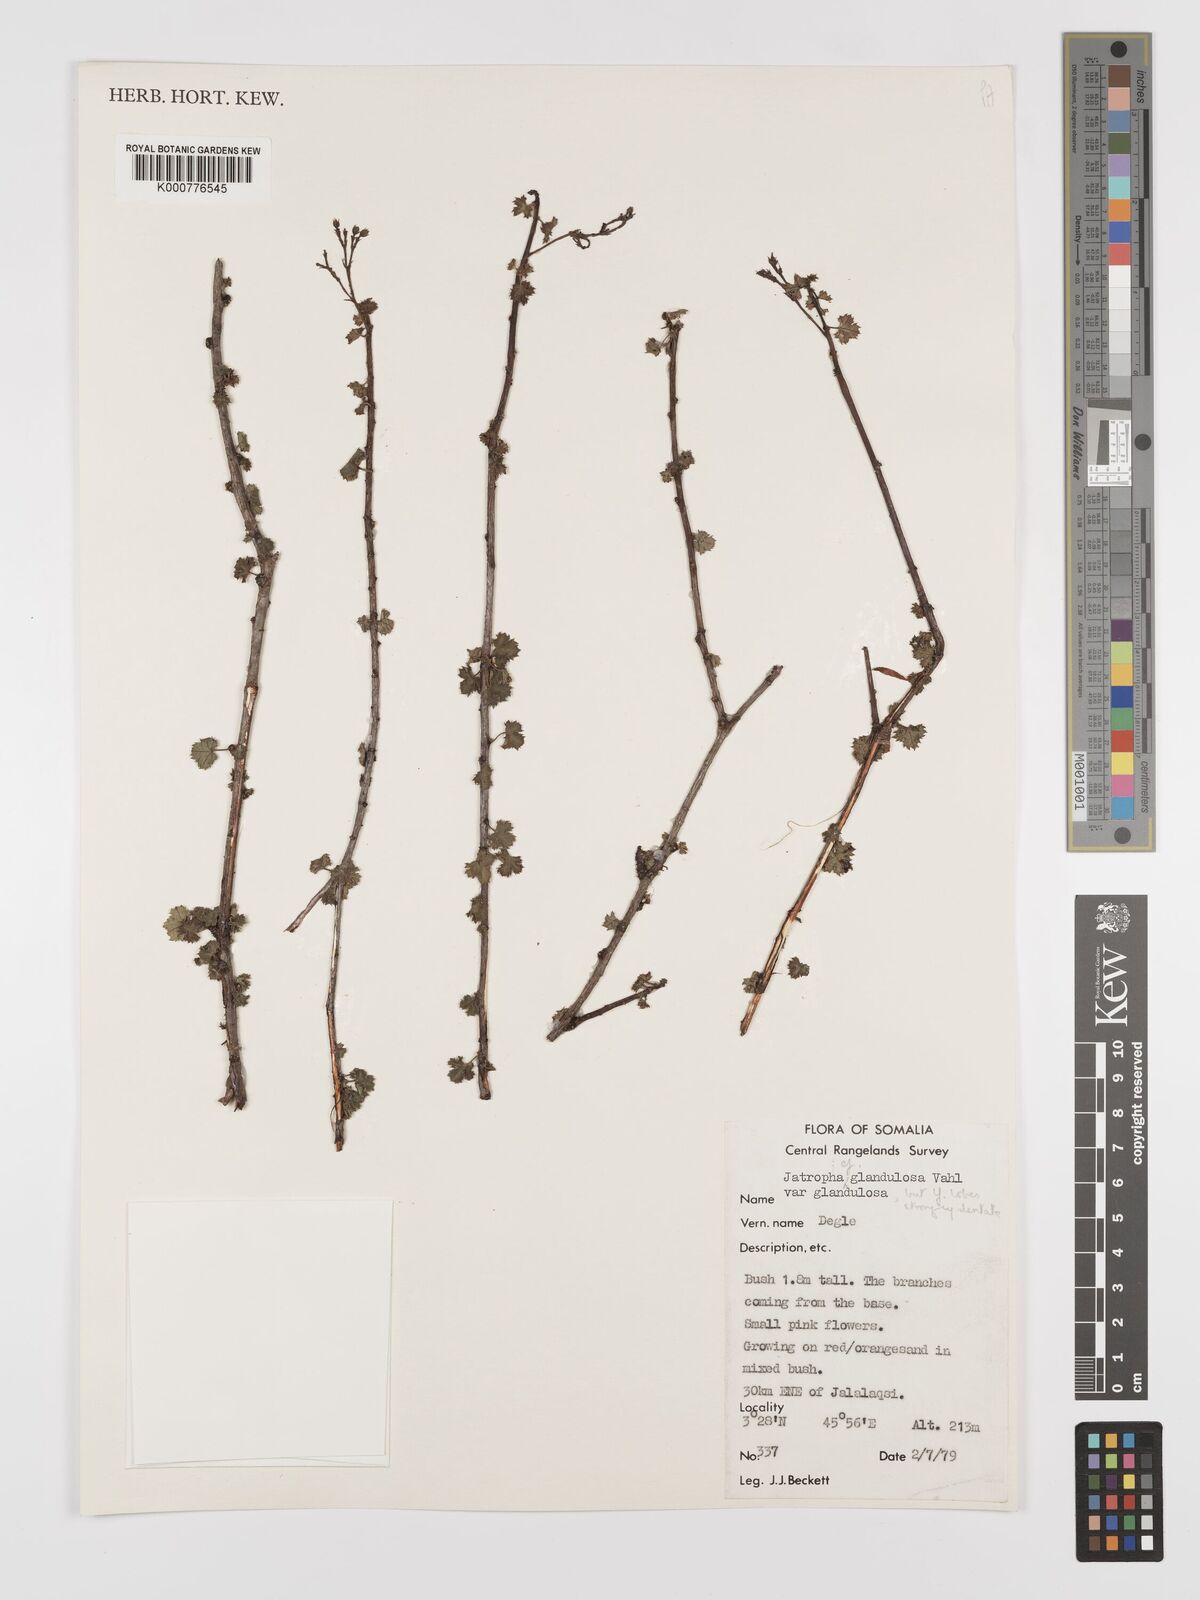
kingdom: Plantae
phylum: Tracheophyta
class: Magnoliopsida
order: Malpighiales
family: Euphorbiaceae
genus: Jatropha
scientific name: Jatropha pelargoniifolia
